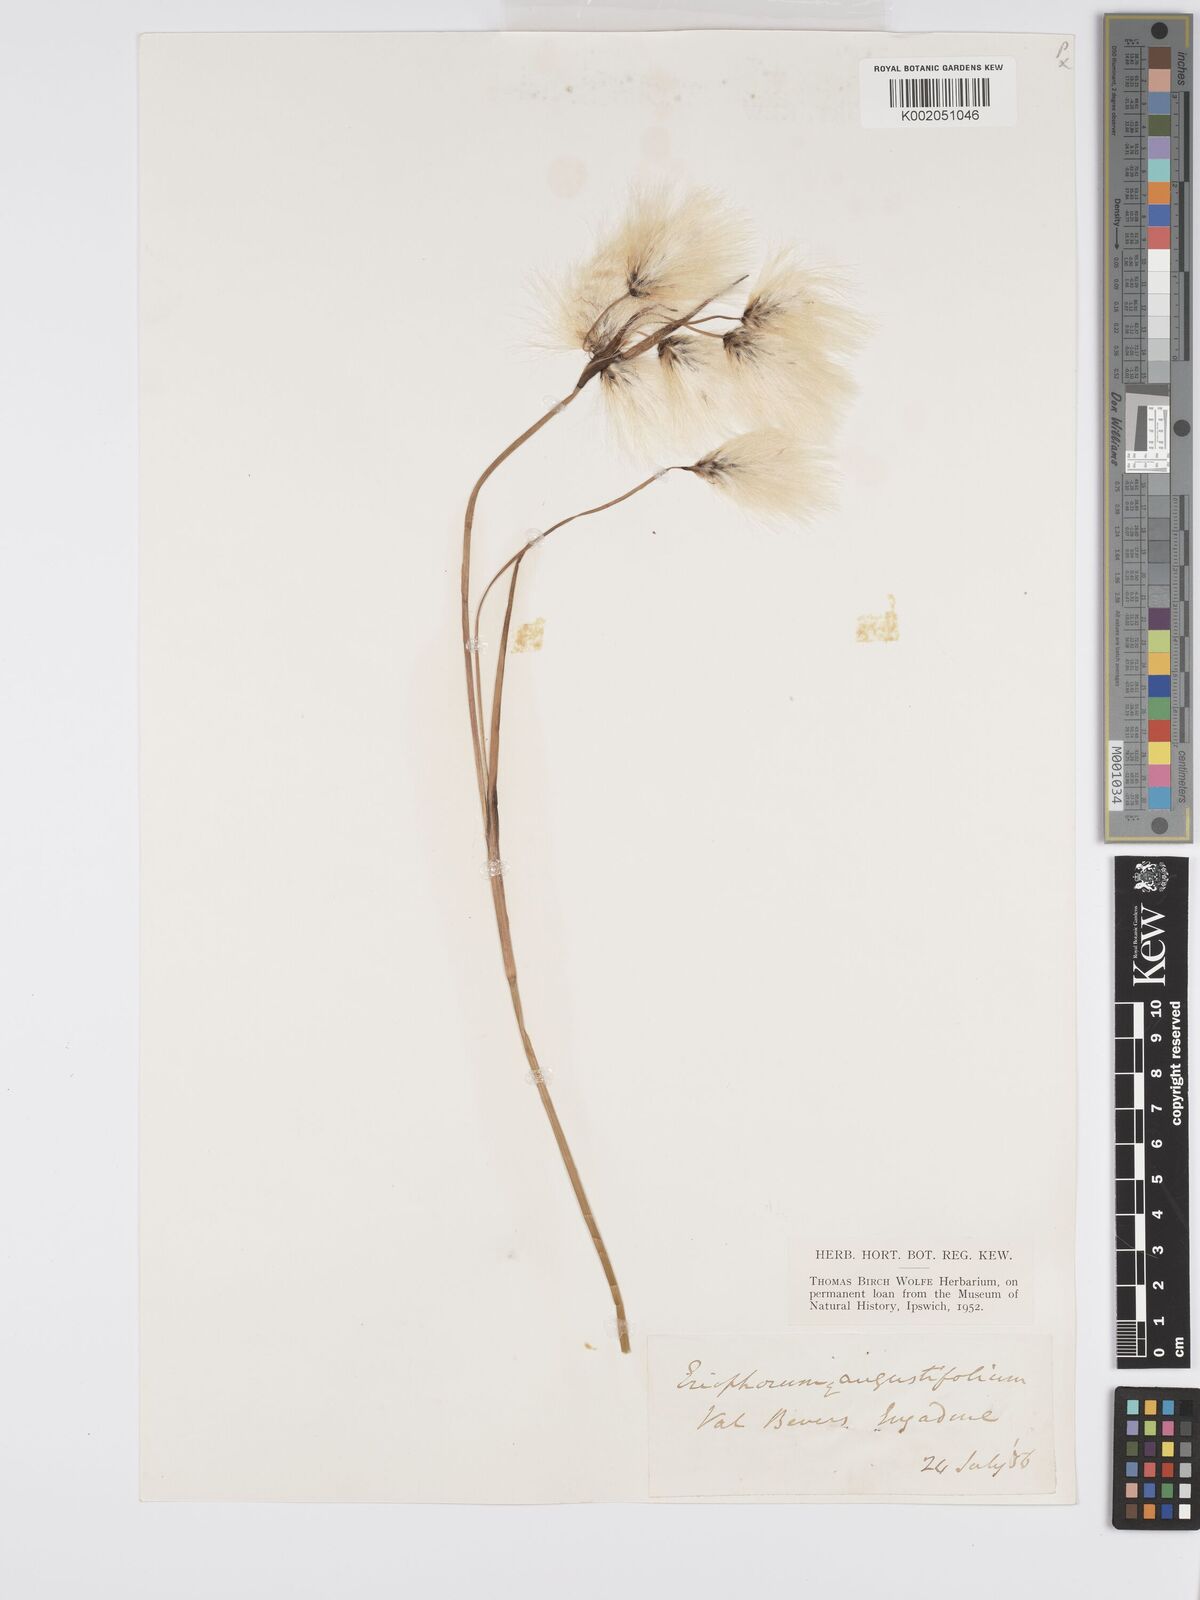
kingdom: Plantae
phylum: Tracheophyta
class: Liliopsida
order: Poales
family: Cyperaceae
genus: Eriophorum
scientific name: Eriophorum angustifolium
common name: Common cottongrass
